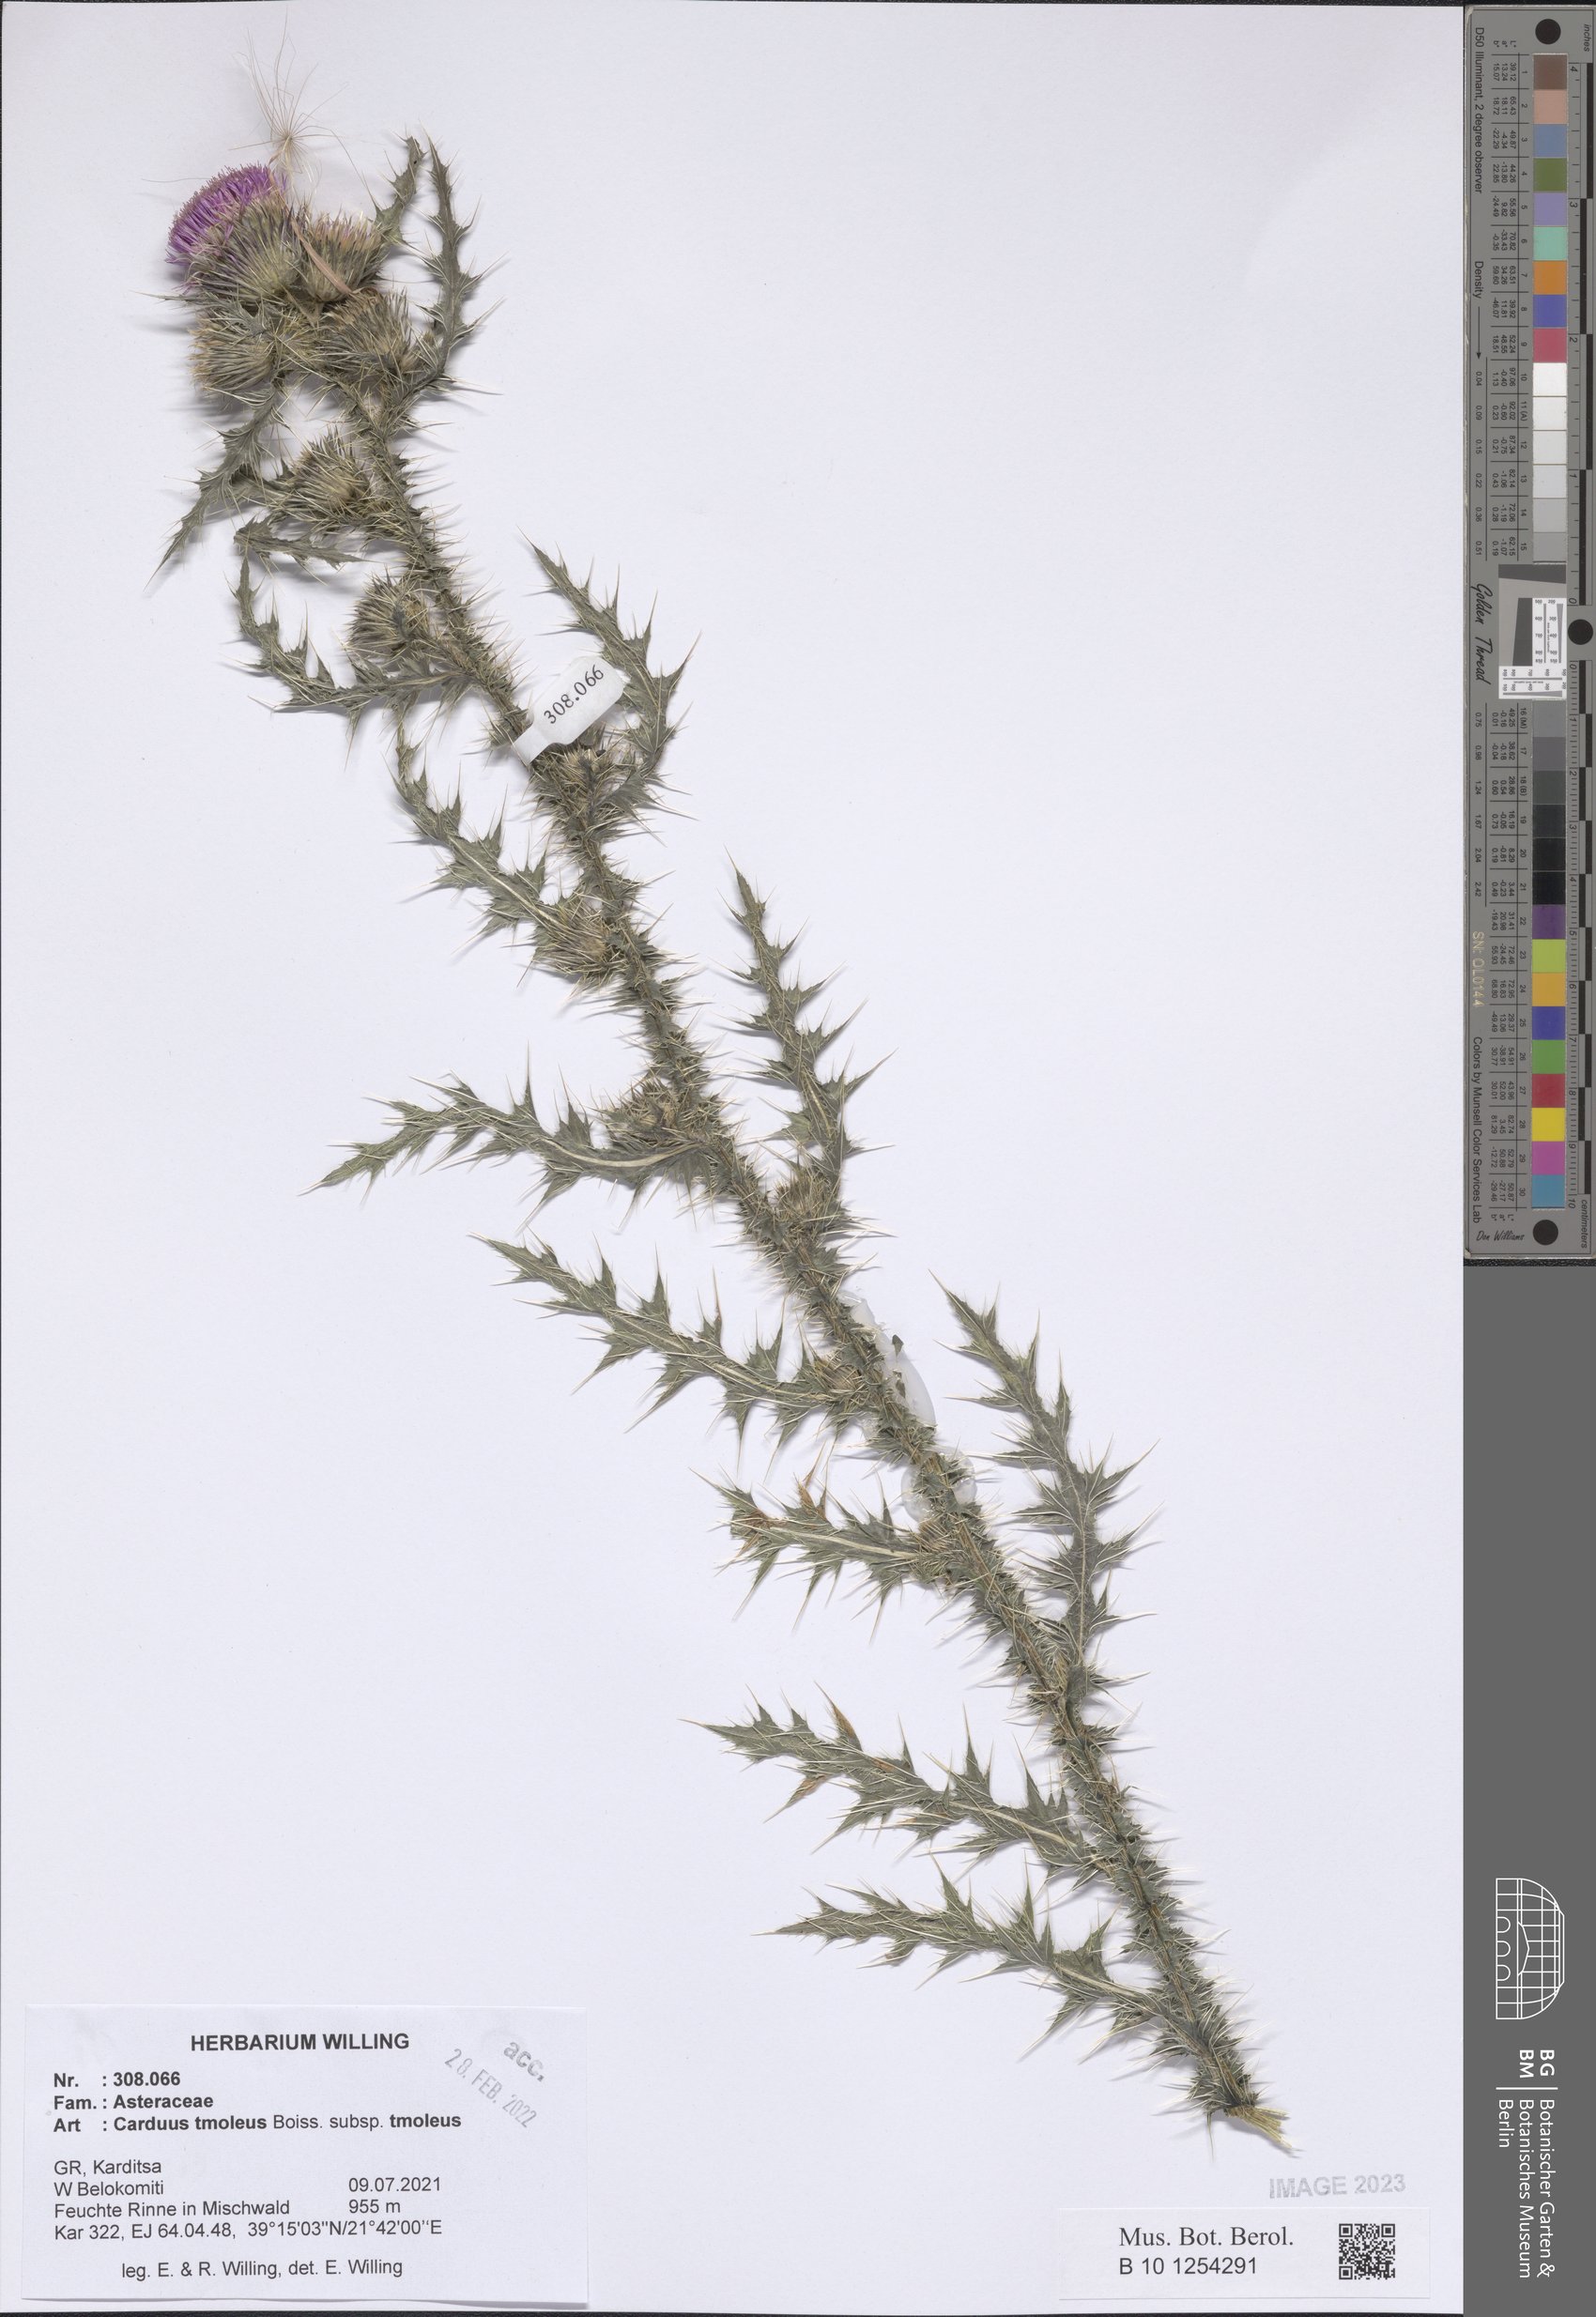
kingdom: Plantae
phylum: Tracheophyta
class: Magnoliopsida
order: Asterales
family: Asteraceae
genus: Carduus
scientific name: Carduus tmoleus
